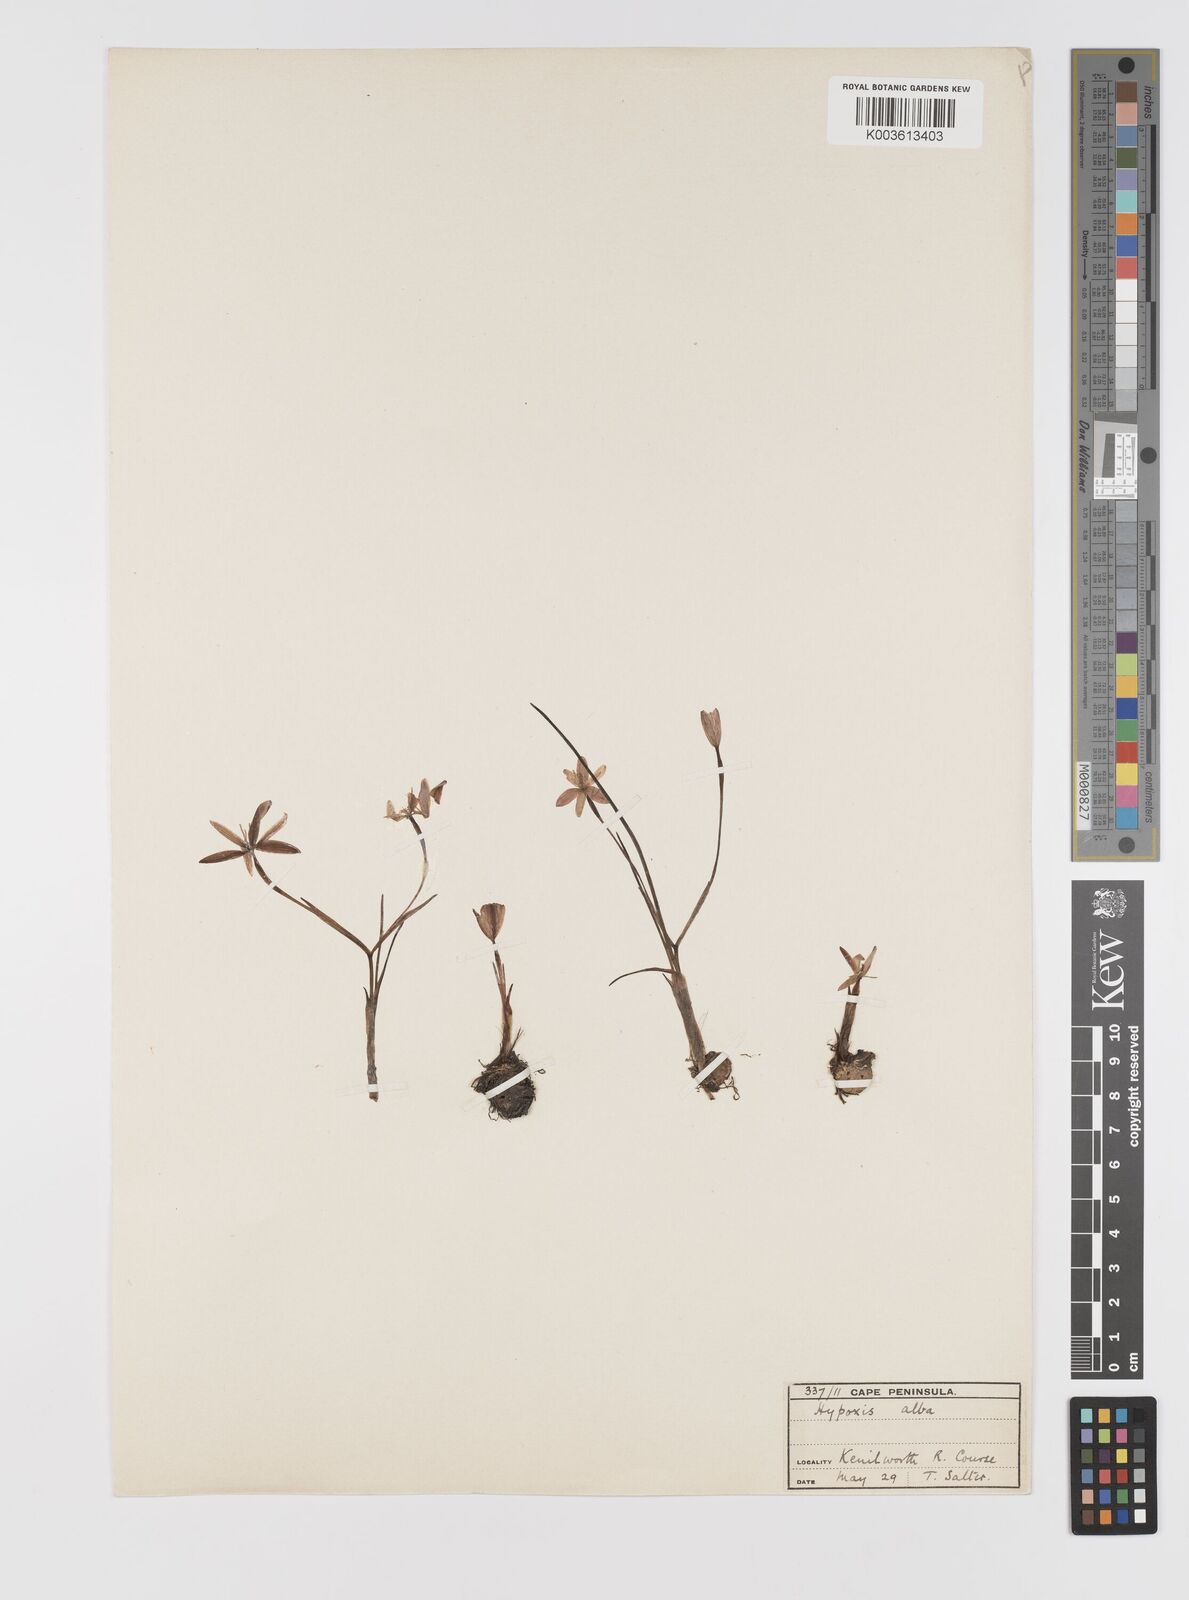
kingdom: Plantae
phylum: Tracheophyta
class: Liliopsida
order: Asparagales
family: Hypoxidaceae
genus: Pauridia
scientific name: Pauridia alba
